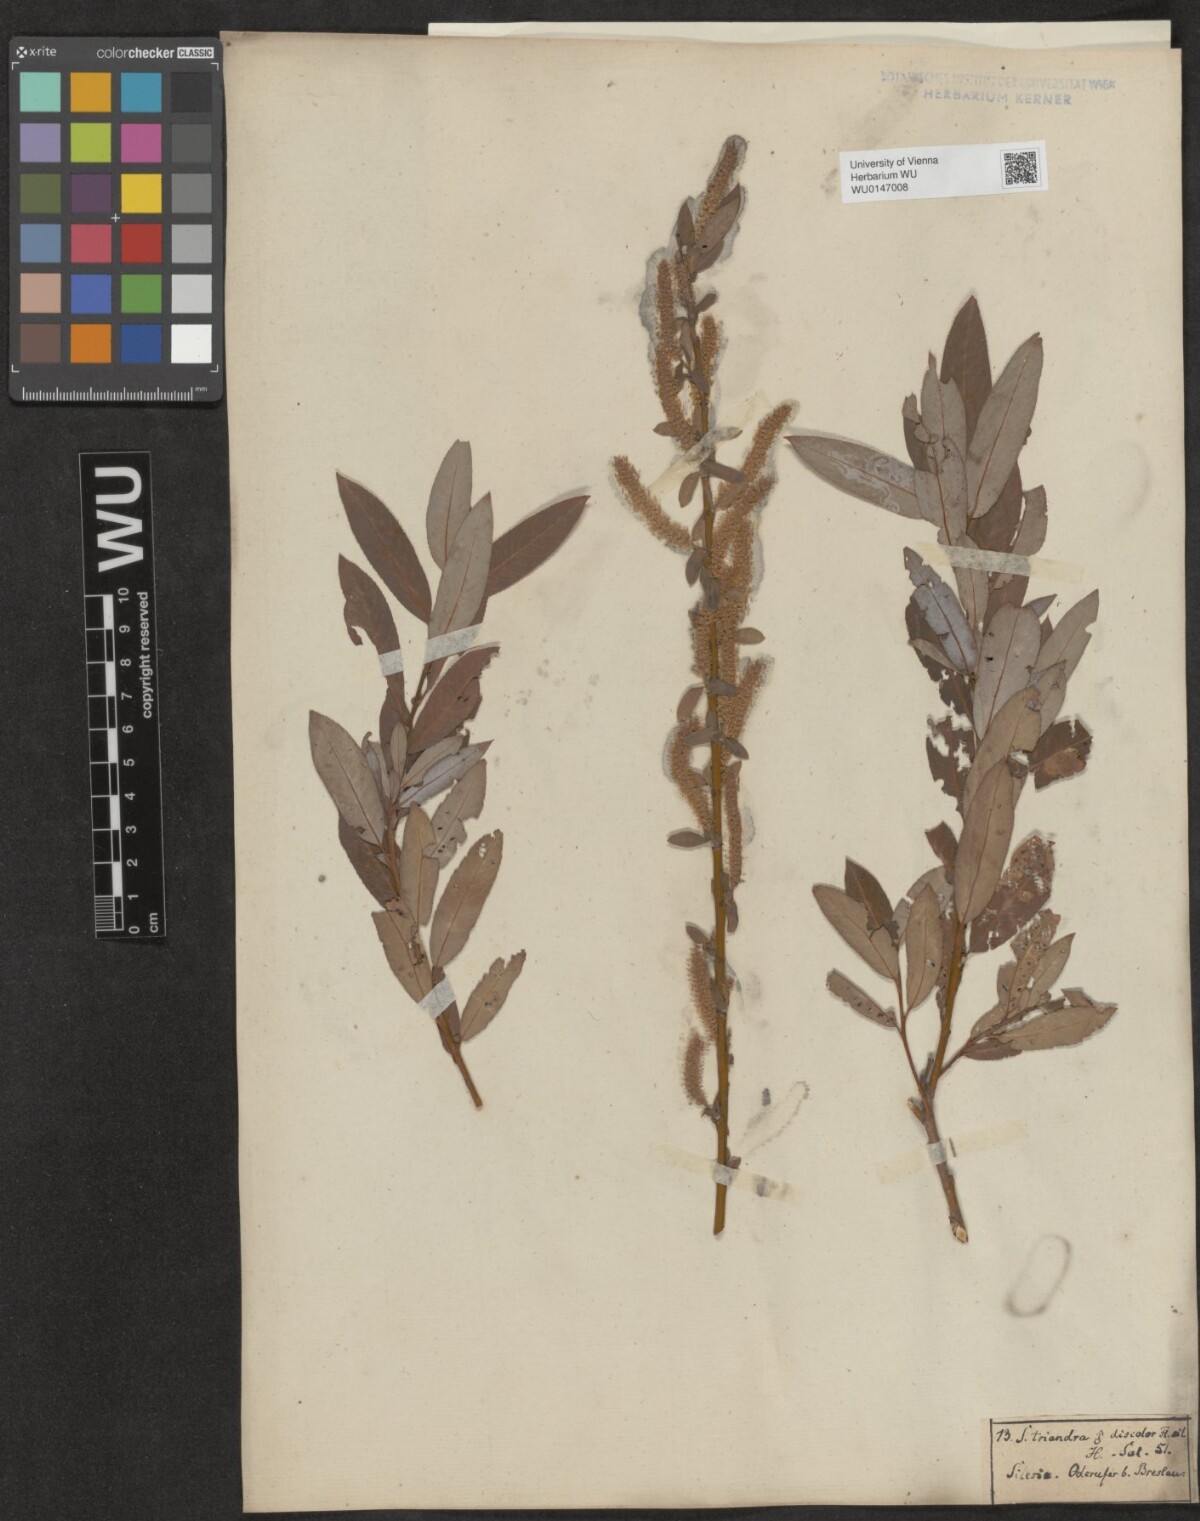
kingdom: Plantae
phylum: Tracheophyta
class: Magnoliopsida
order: Malpighiales
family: Salicaceae
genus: Salix
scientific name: Salix triandra
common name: Almond willow
